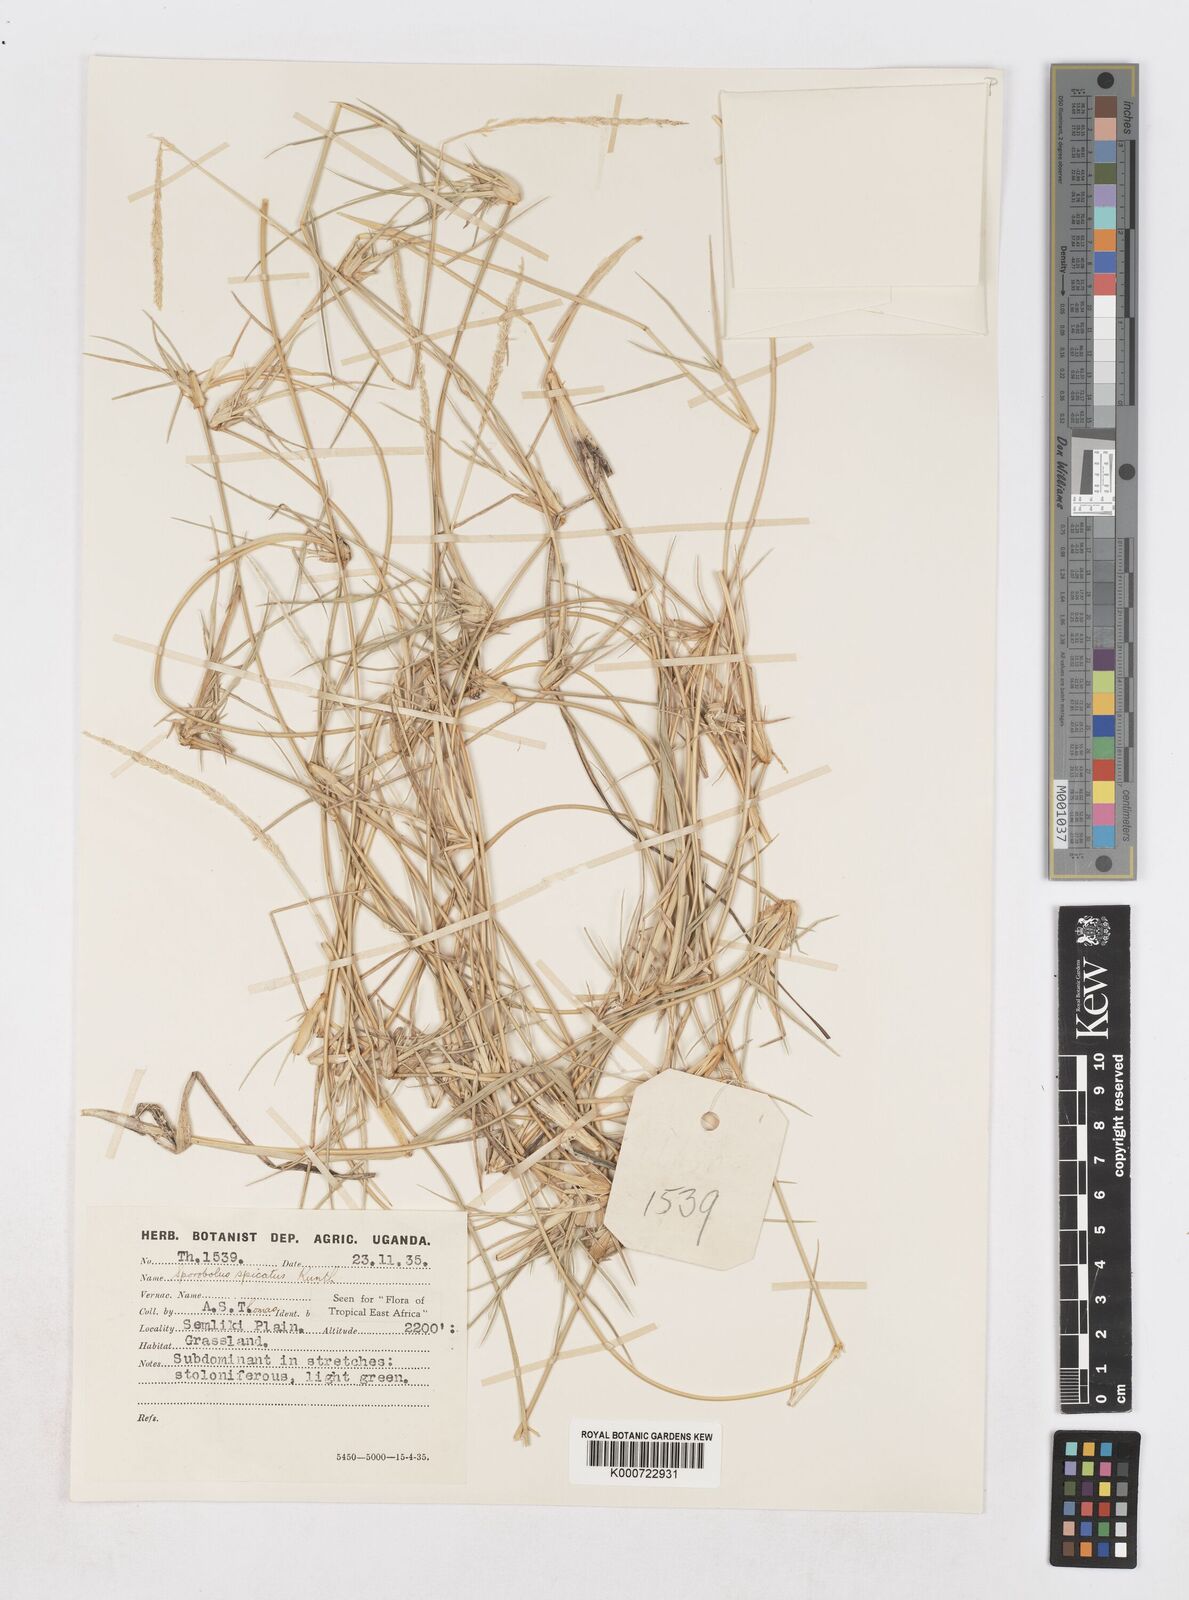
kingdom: Plantae
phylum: Tracheophyta
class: Liliopsida
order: Poales
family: Poaceae
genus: Sporobolus
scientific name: Sporobolus spicatus
